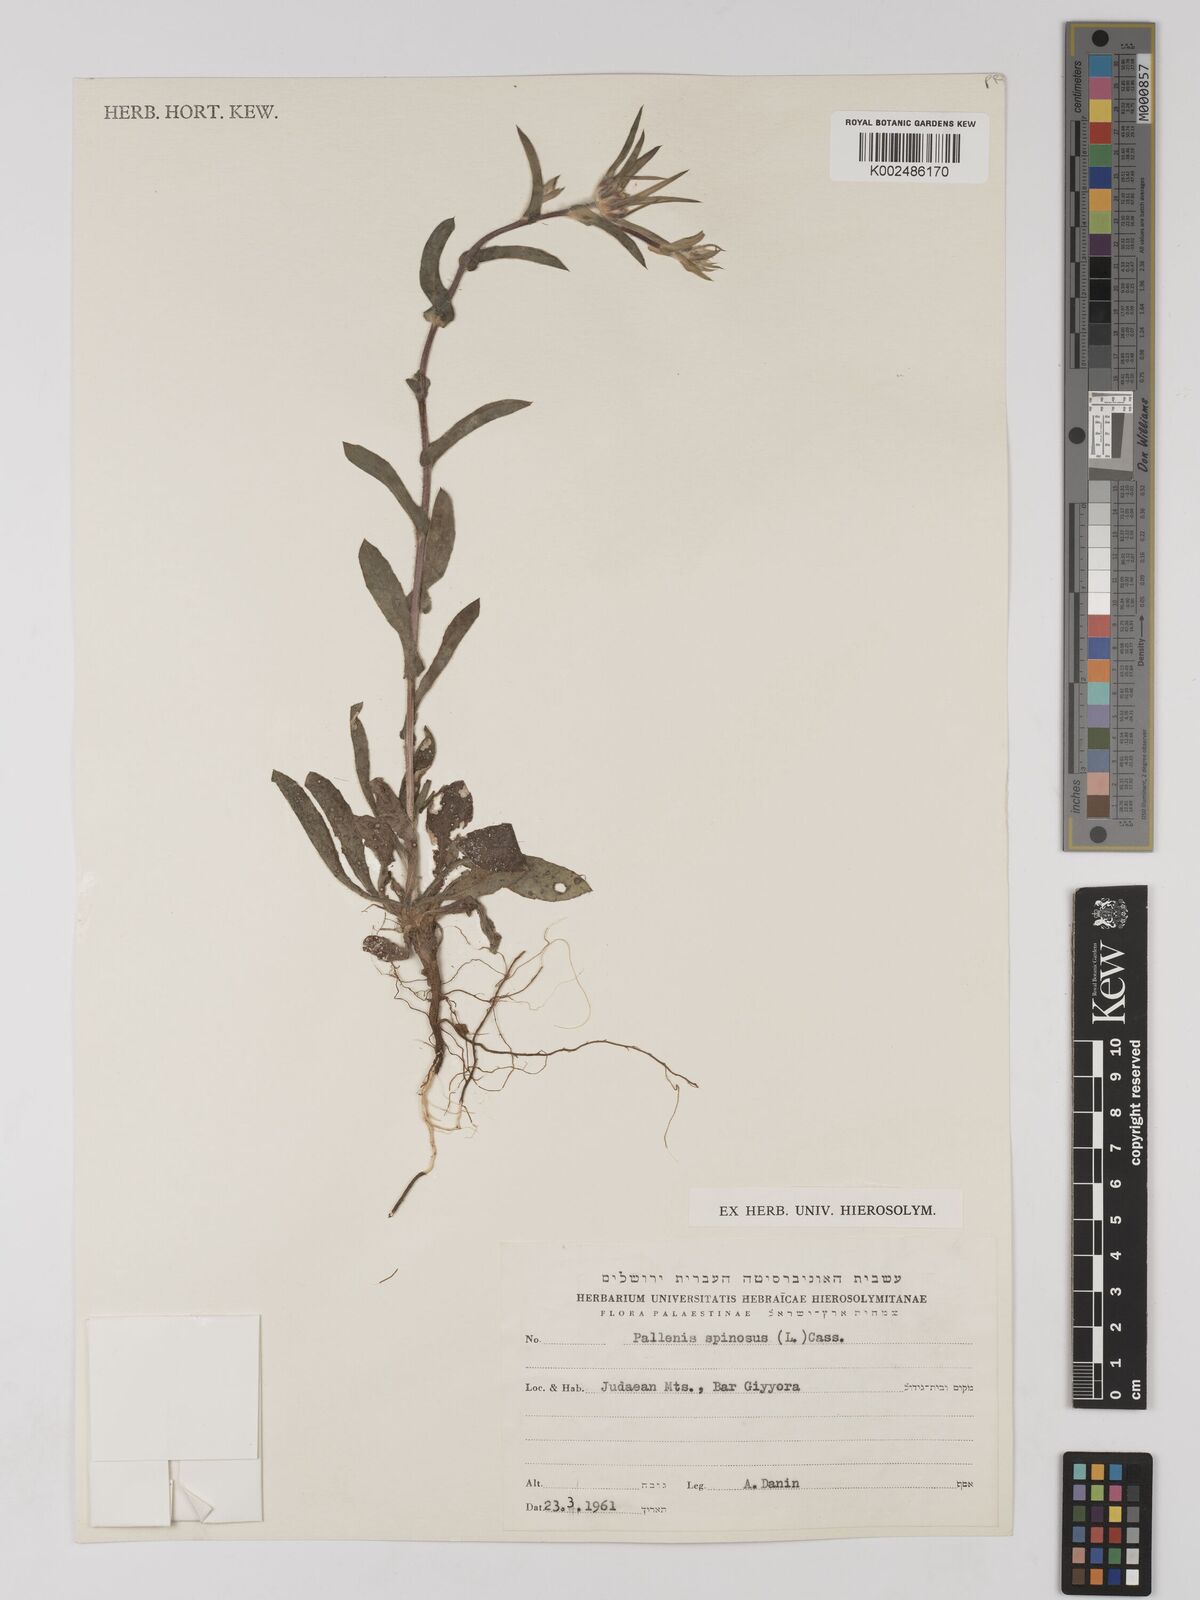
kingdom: Plantae
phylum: Tracheophyta
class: Magnoliopsida
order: Asterales
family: Asteraceae
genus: Pallenis
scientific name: Pallenis spinosa
